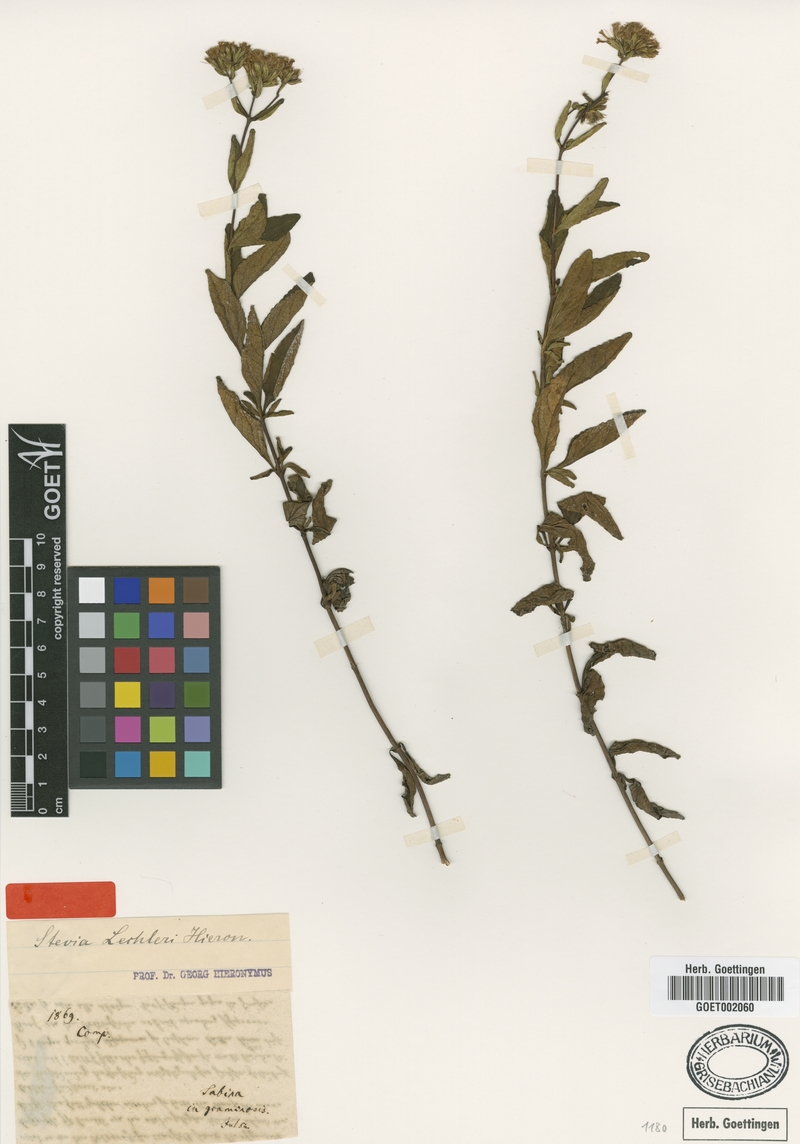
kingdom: Plantae
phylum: Tracheophyta
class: Magnoliopsida
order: Asterales
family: Asteraceae
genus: Stevia
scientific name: Stevia lechleri
